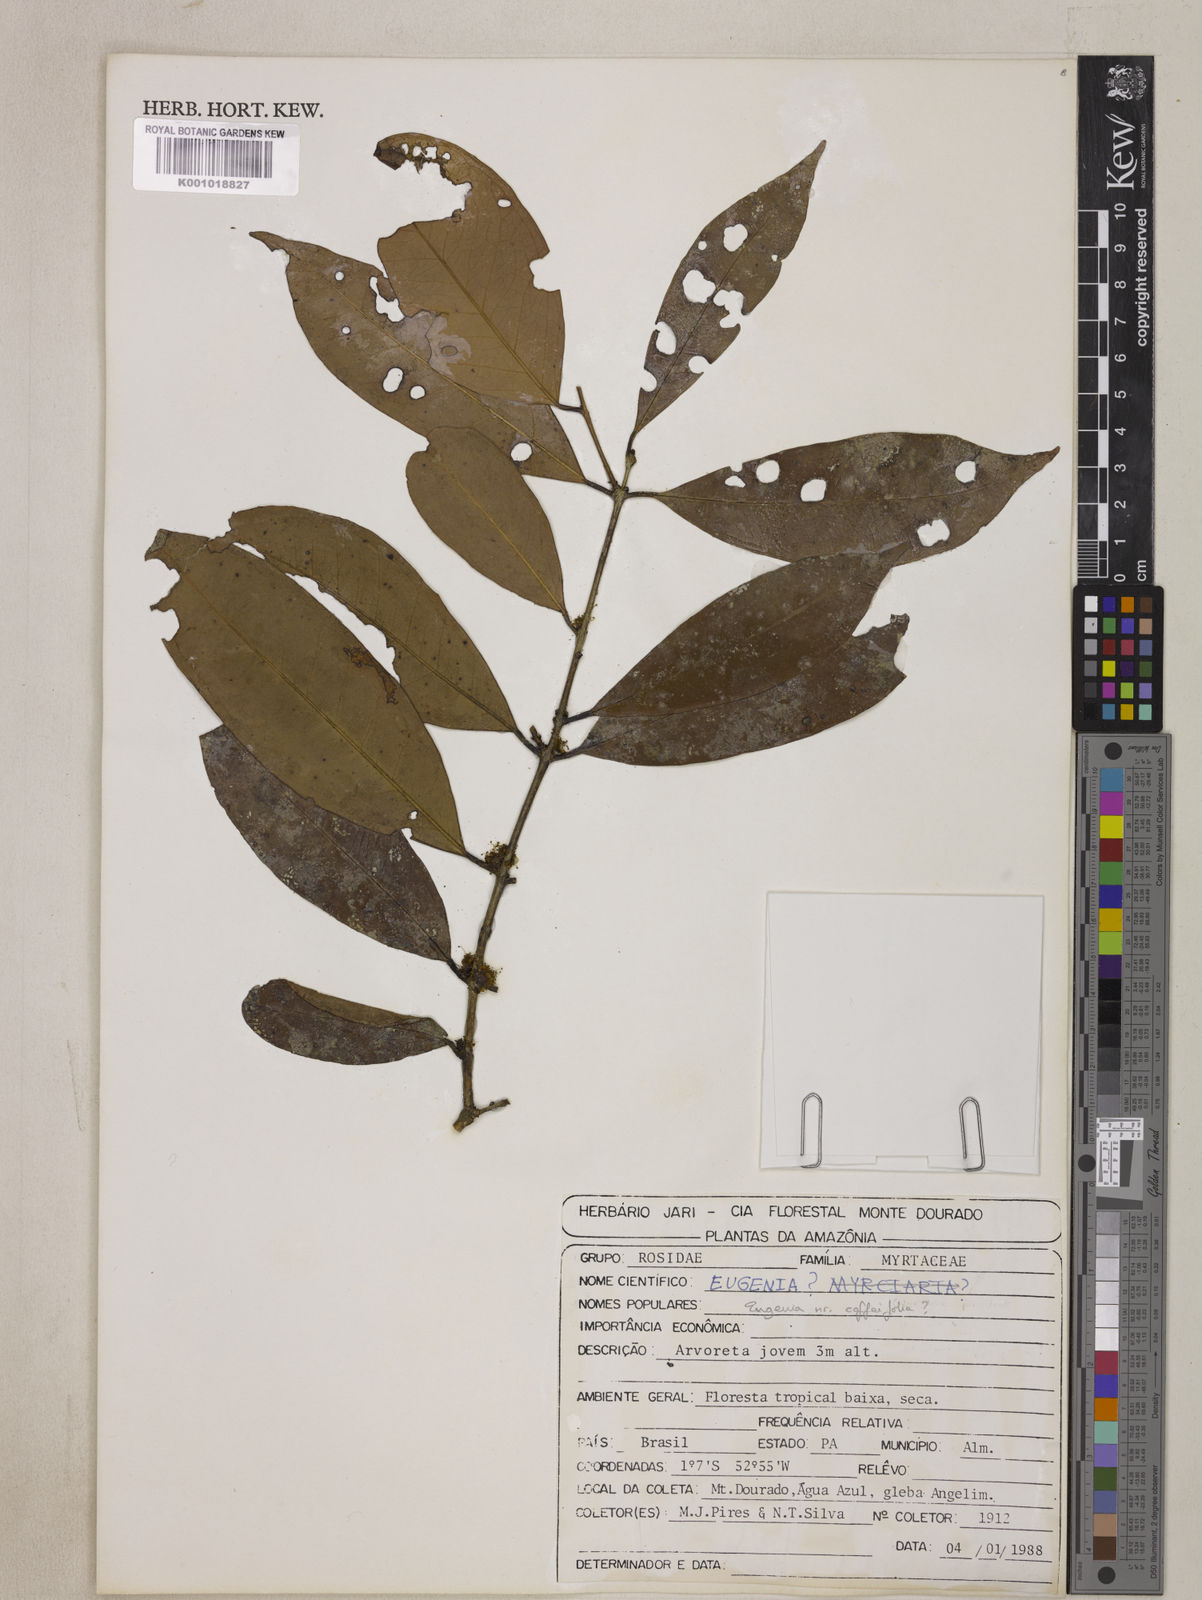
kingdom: Plantae
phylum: Tracheophyta
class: Magnoliopsida
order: Myrtales
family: Myrtaceae
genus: Eugenia
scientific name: Eugenia coffeifolia
